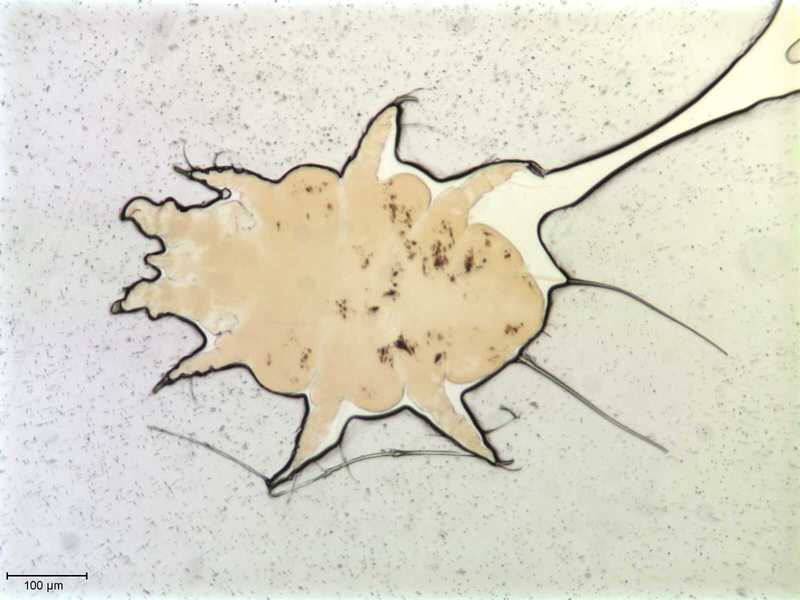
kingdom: Animalia
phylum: Arthropoda
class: Arachnida
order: Trombidiformes
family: Myobiidae
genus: Amorphacarus
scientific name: Amorphacarus parvisetosus
